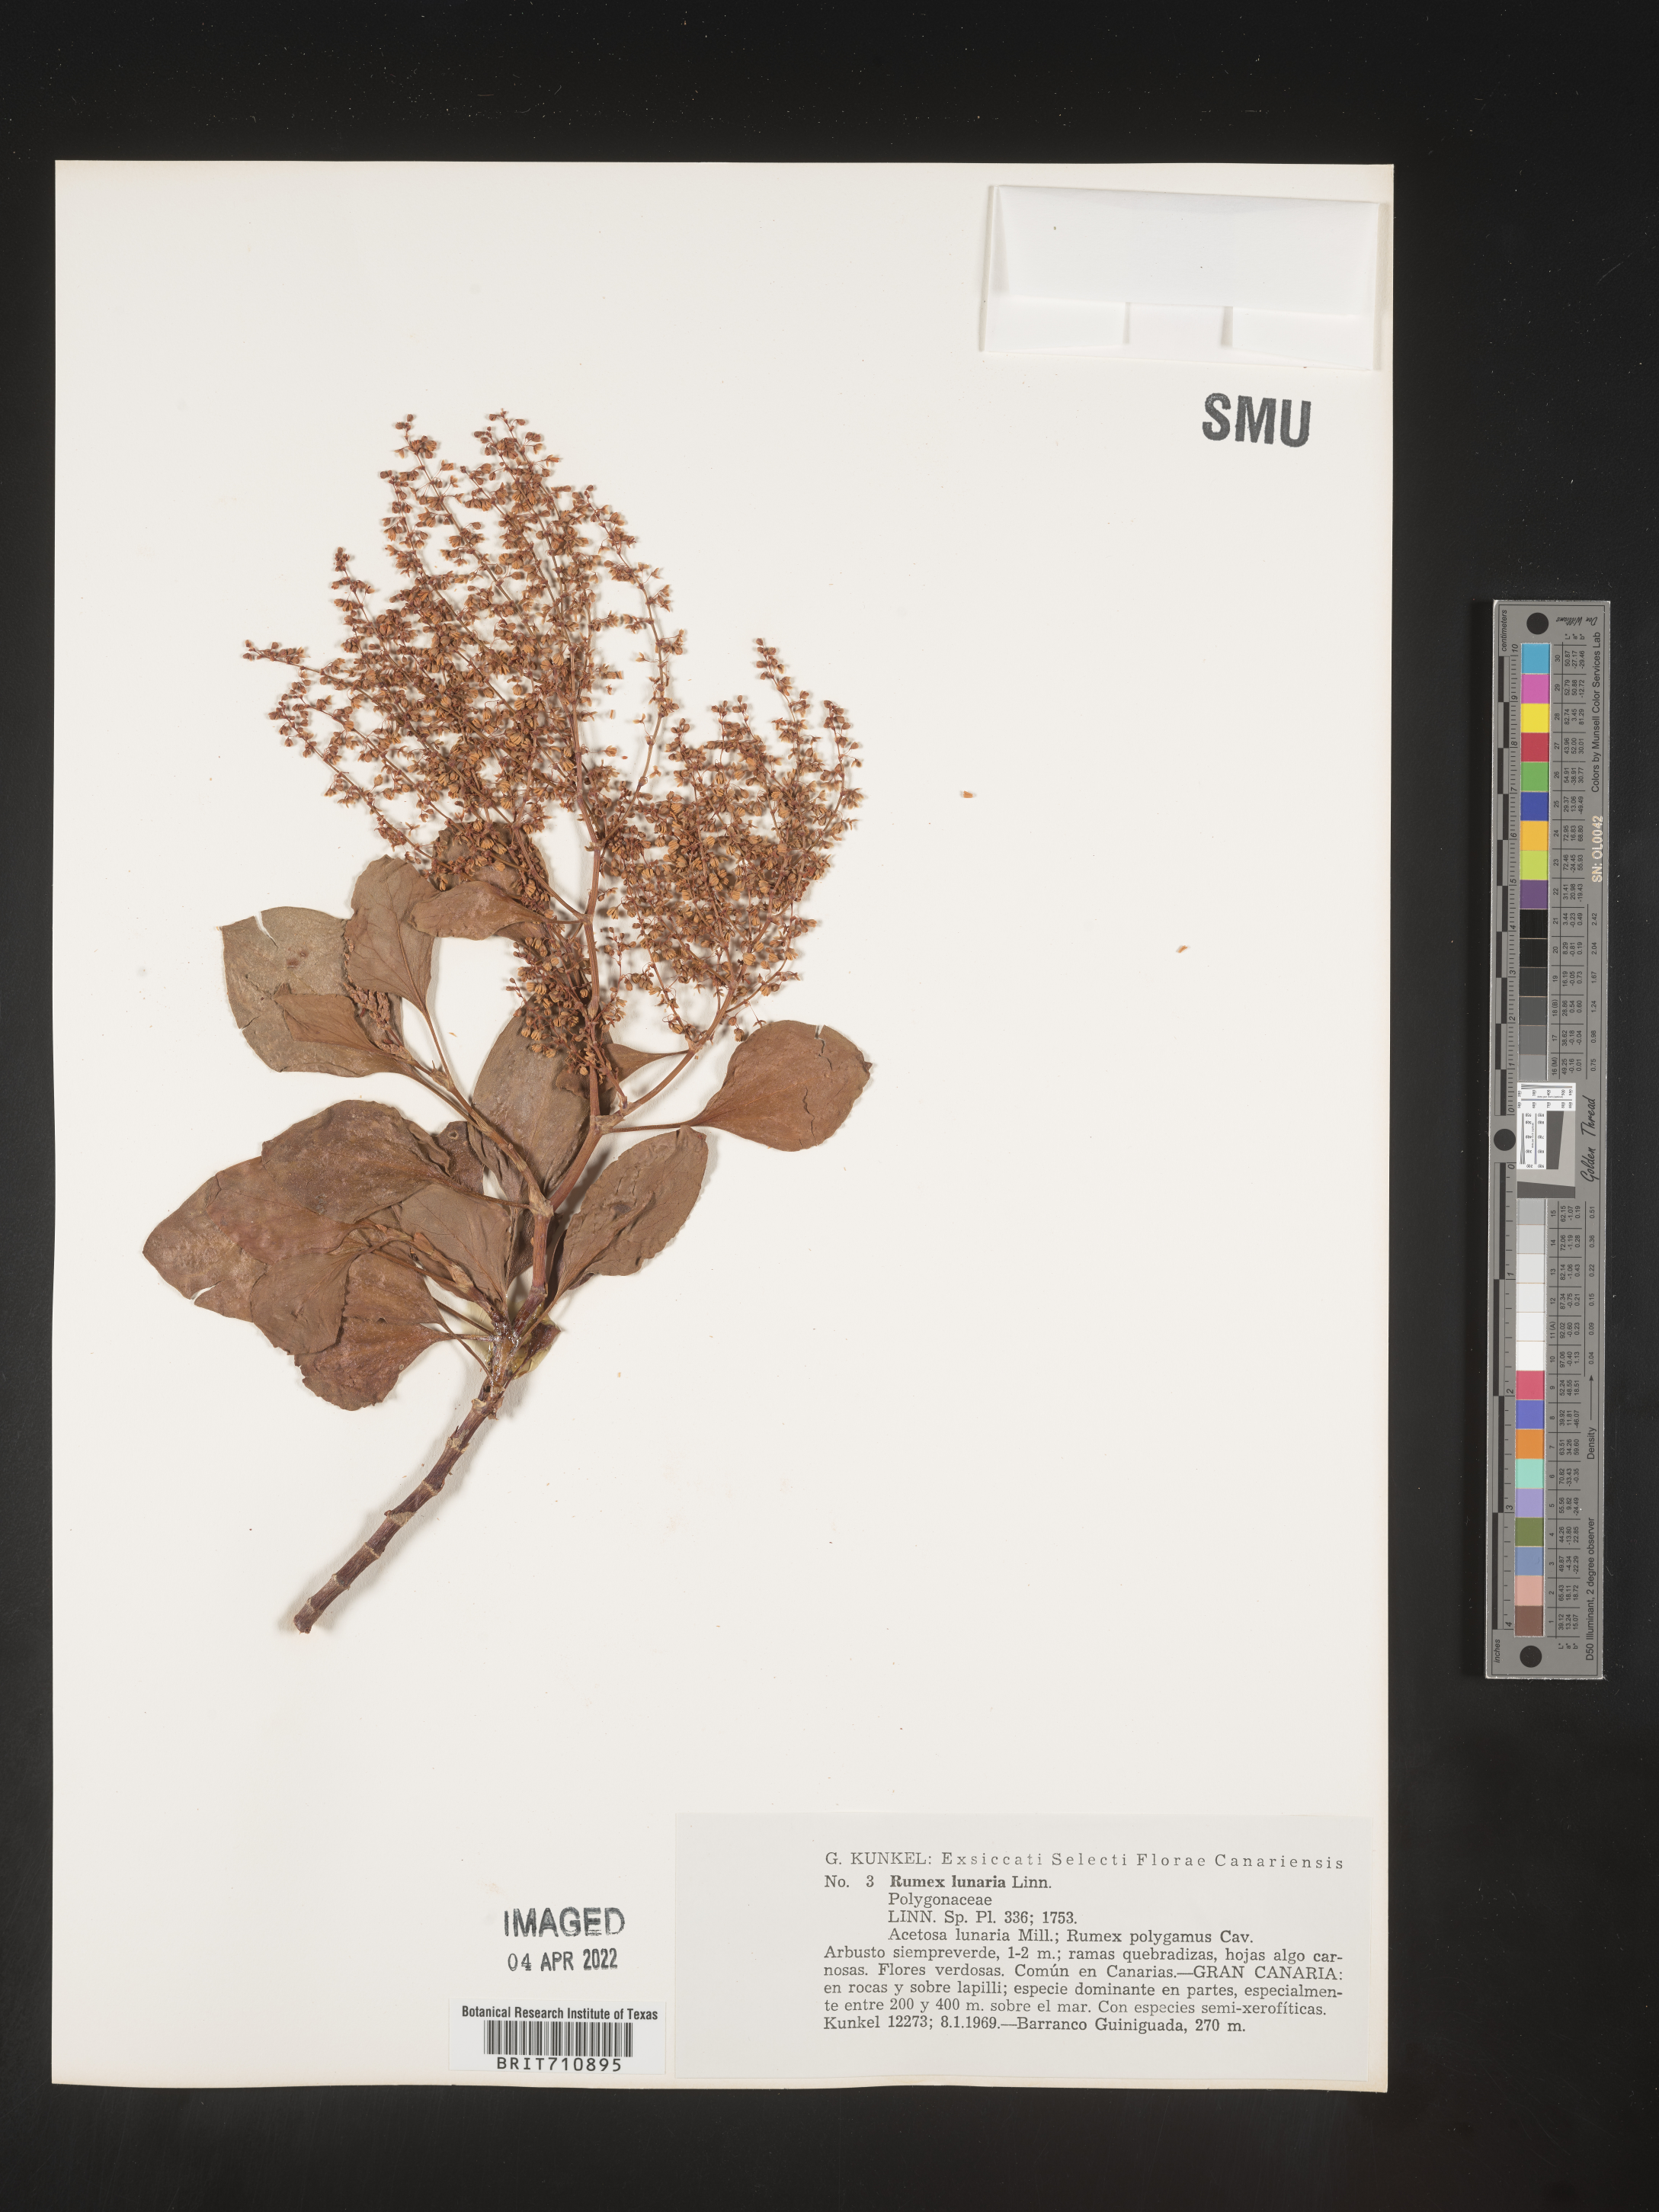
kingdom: Plantae
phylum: Tracheophyta
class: Magnoliopsida
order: Caryophyllales
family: Polygonaceae
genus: Rumex
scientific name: Rumex
